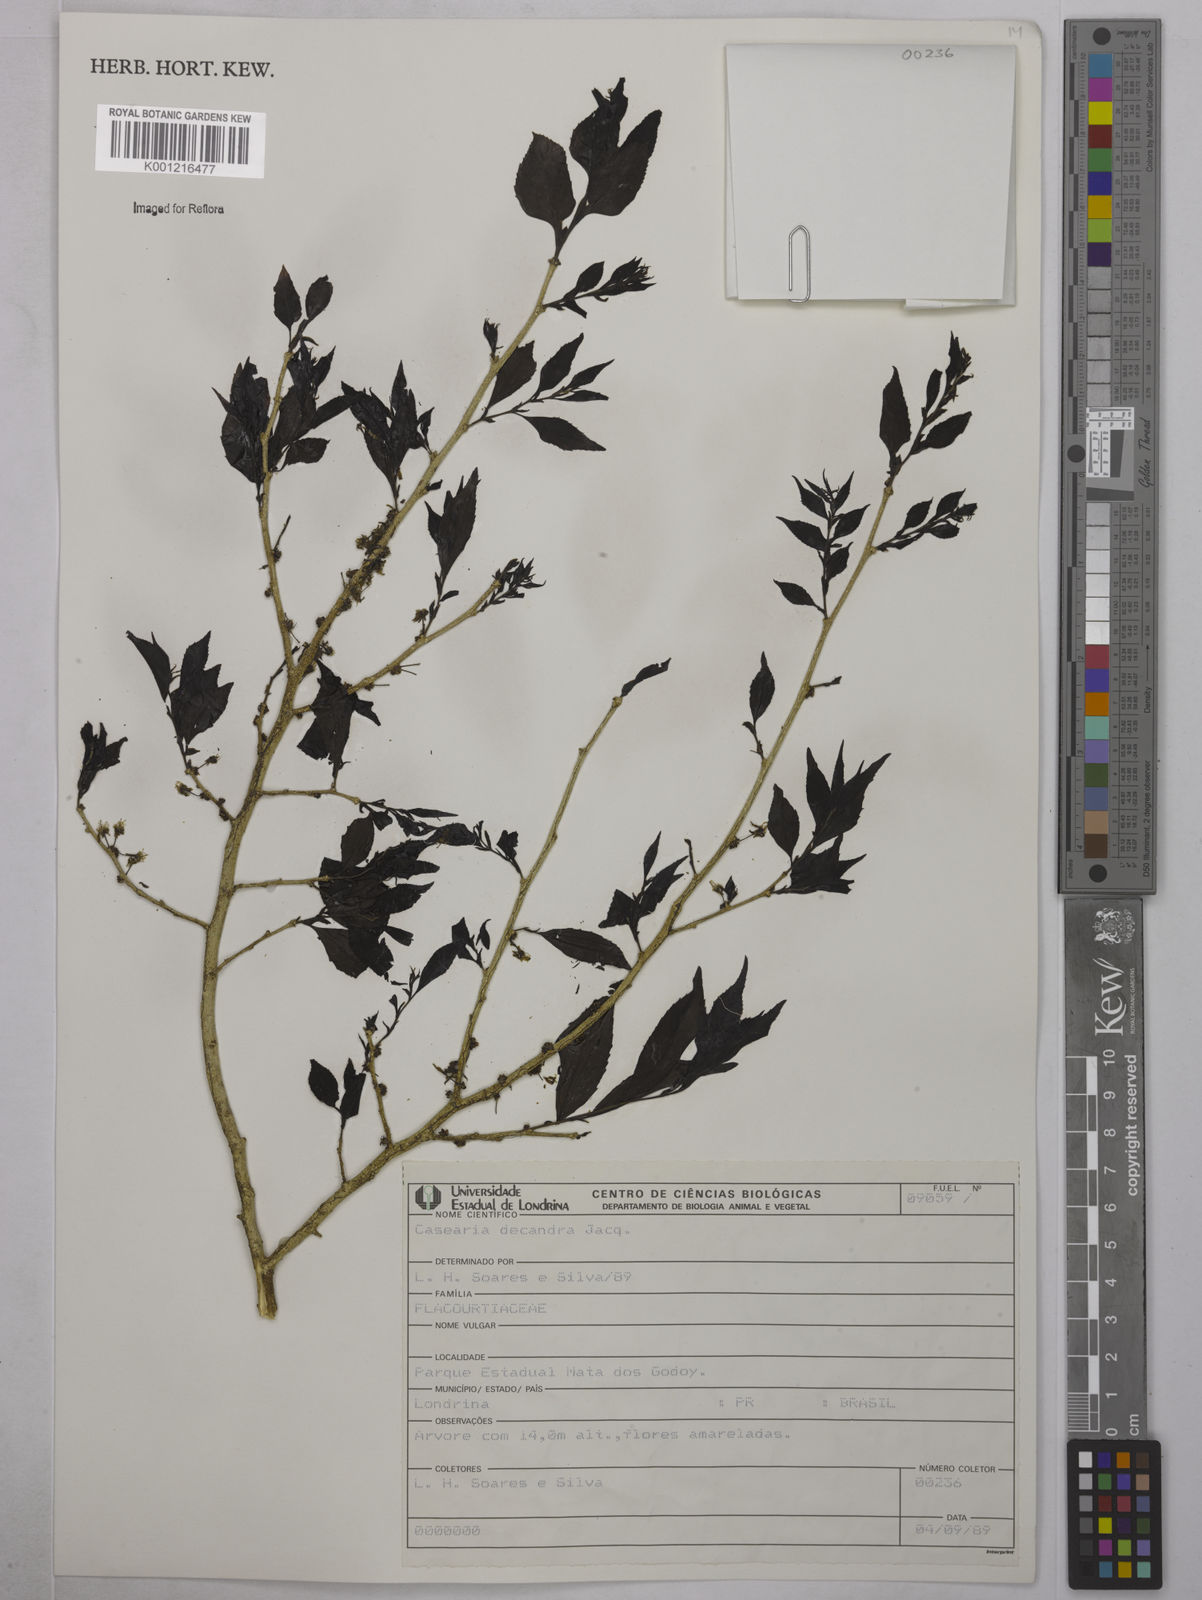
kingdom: Plantae
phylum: Tracheophyta
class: Magnoliopsida
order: Malpighiales
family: Salicaceae
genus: Casearia
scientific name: Casearia decandra
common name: Crack open
